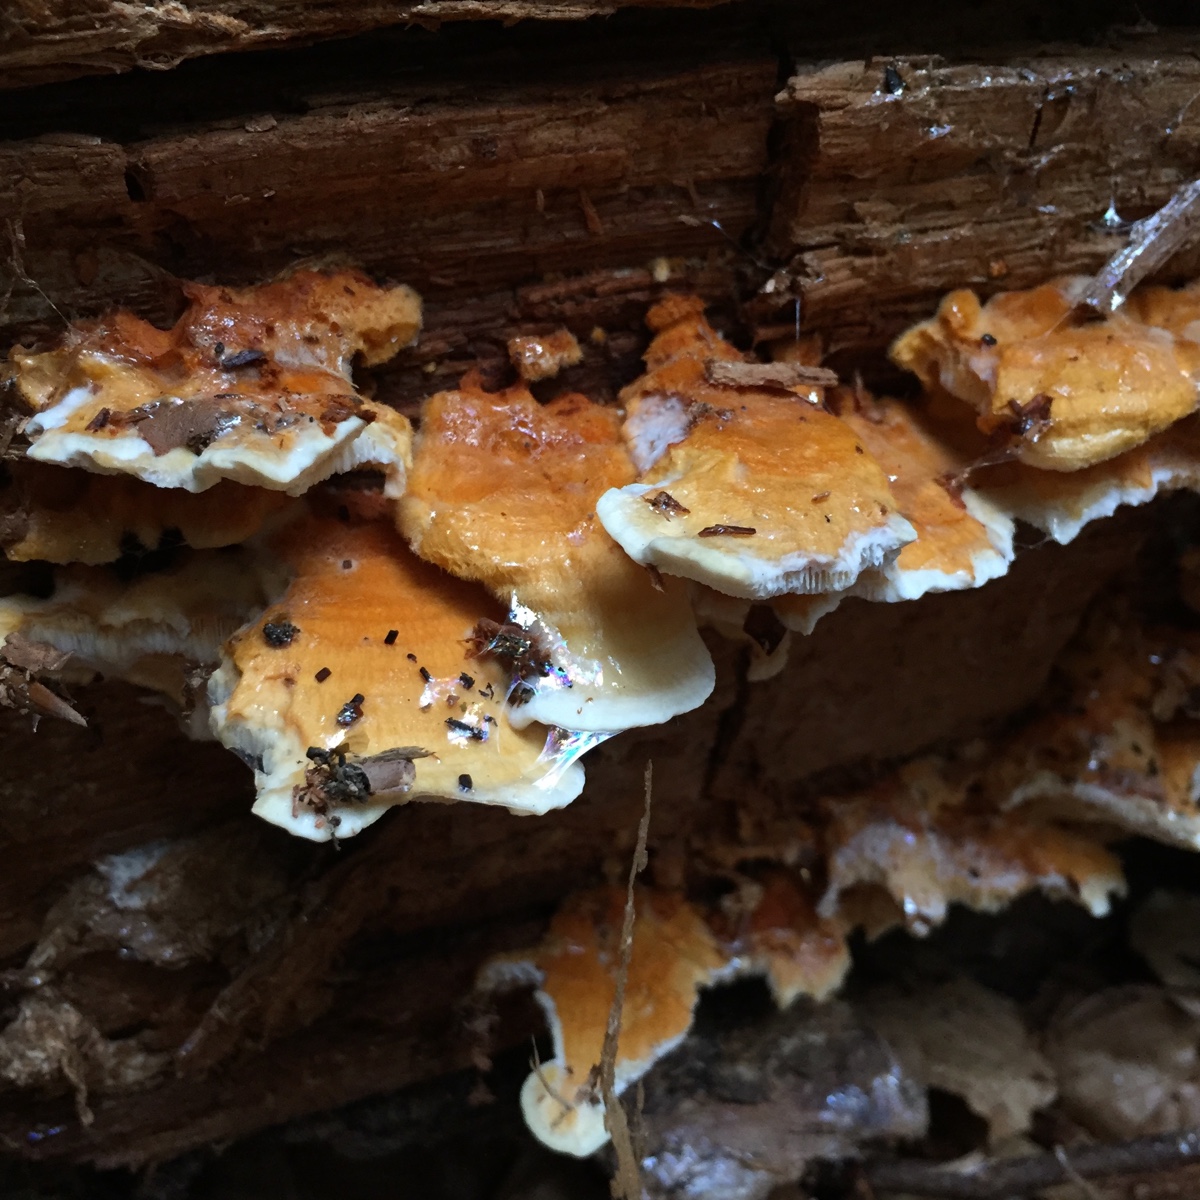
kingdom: Fungi
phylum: Basidiomycota
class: Agaricomycetes
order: Polyporales
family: Pycnoporellaceae
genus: Pycnoporellus
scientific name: Pycnoporellus fulgens
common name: flammeporesvamp
